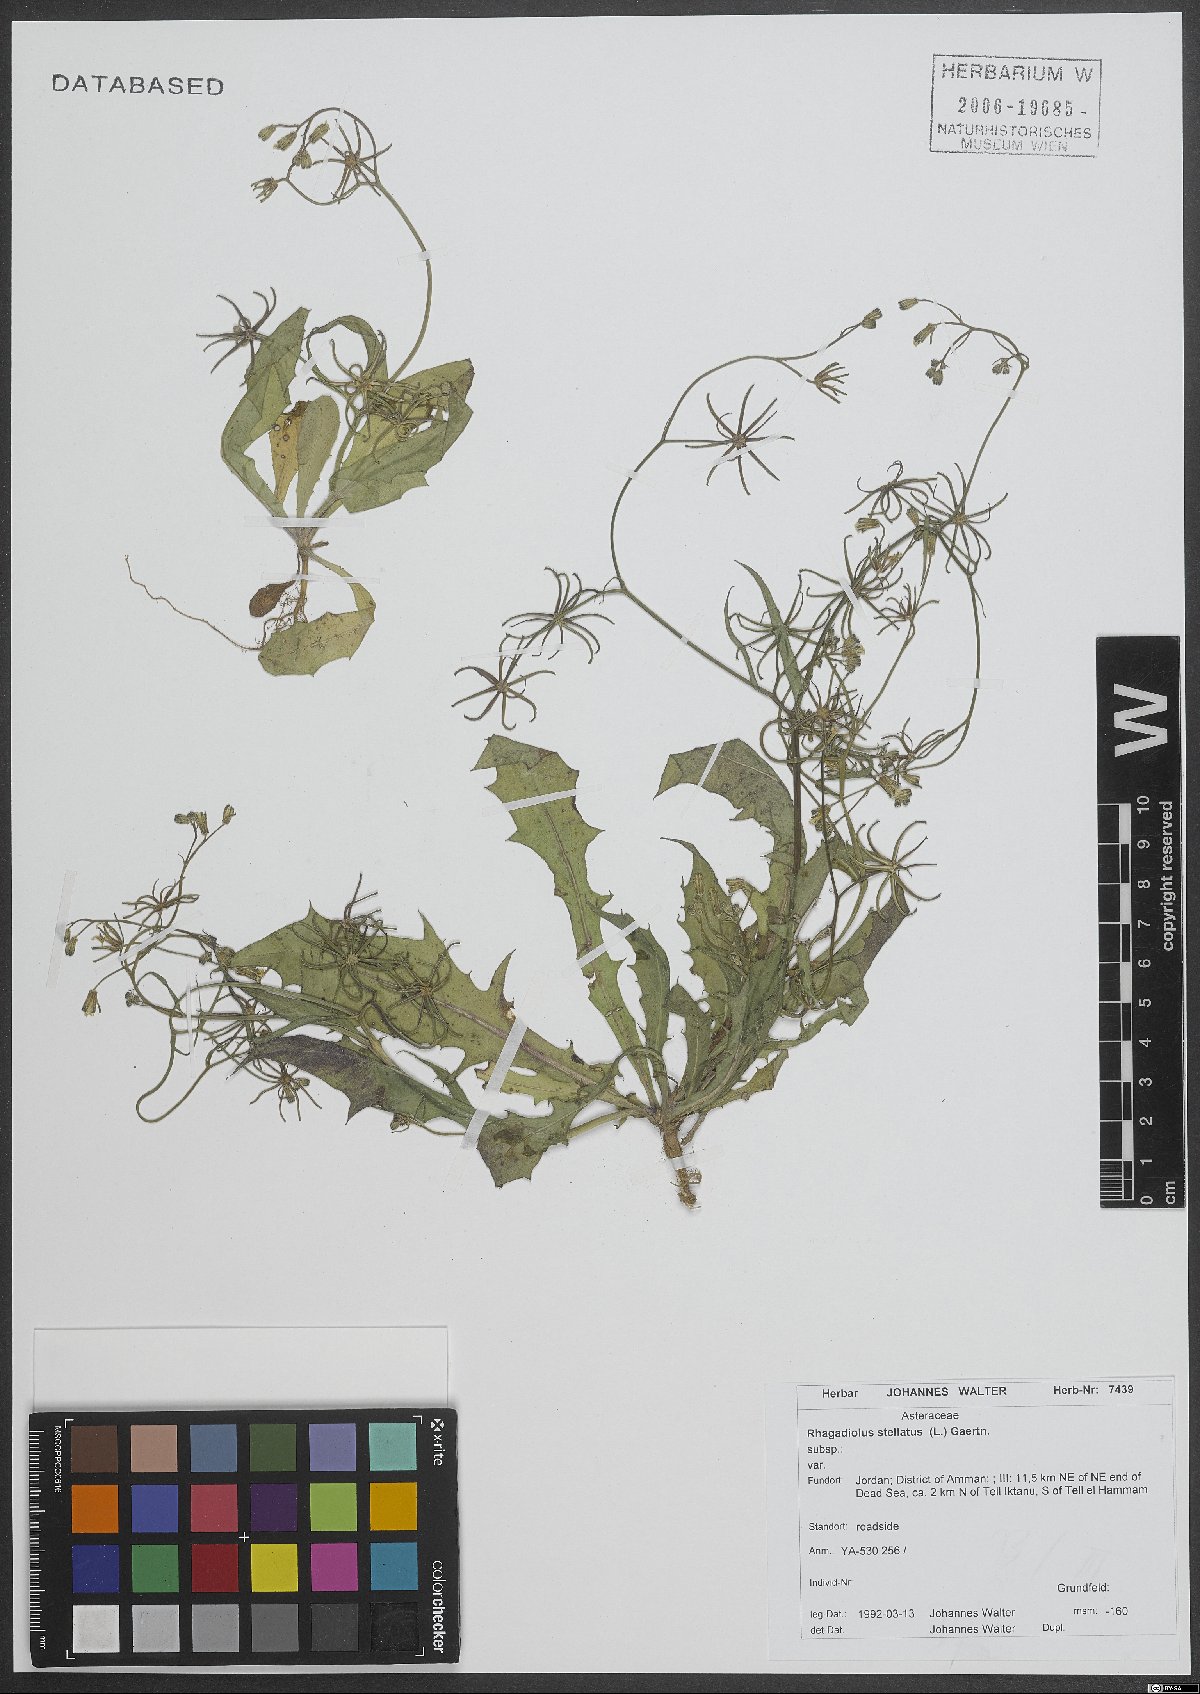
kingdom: Plantae
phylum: Tracheophyta
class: Magnoliopsida
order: Asterales
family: Asteraceae
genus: Rhagadiolus
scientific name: Rhagadiolus stellatus
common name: Star hawkbit
